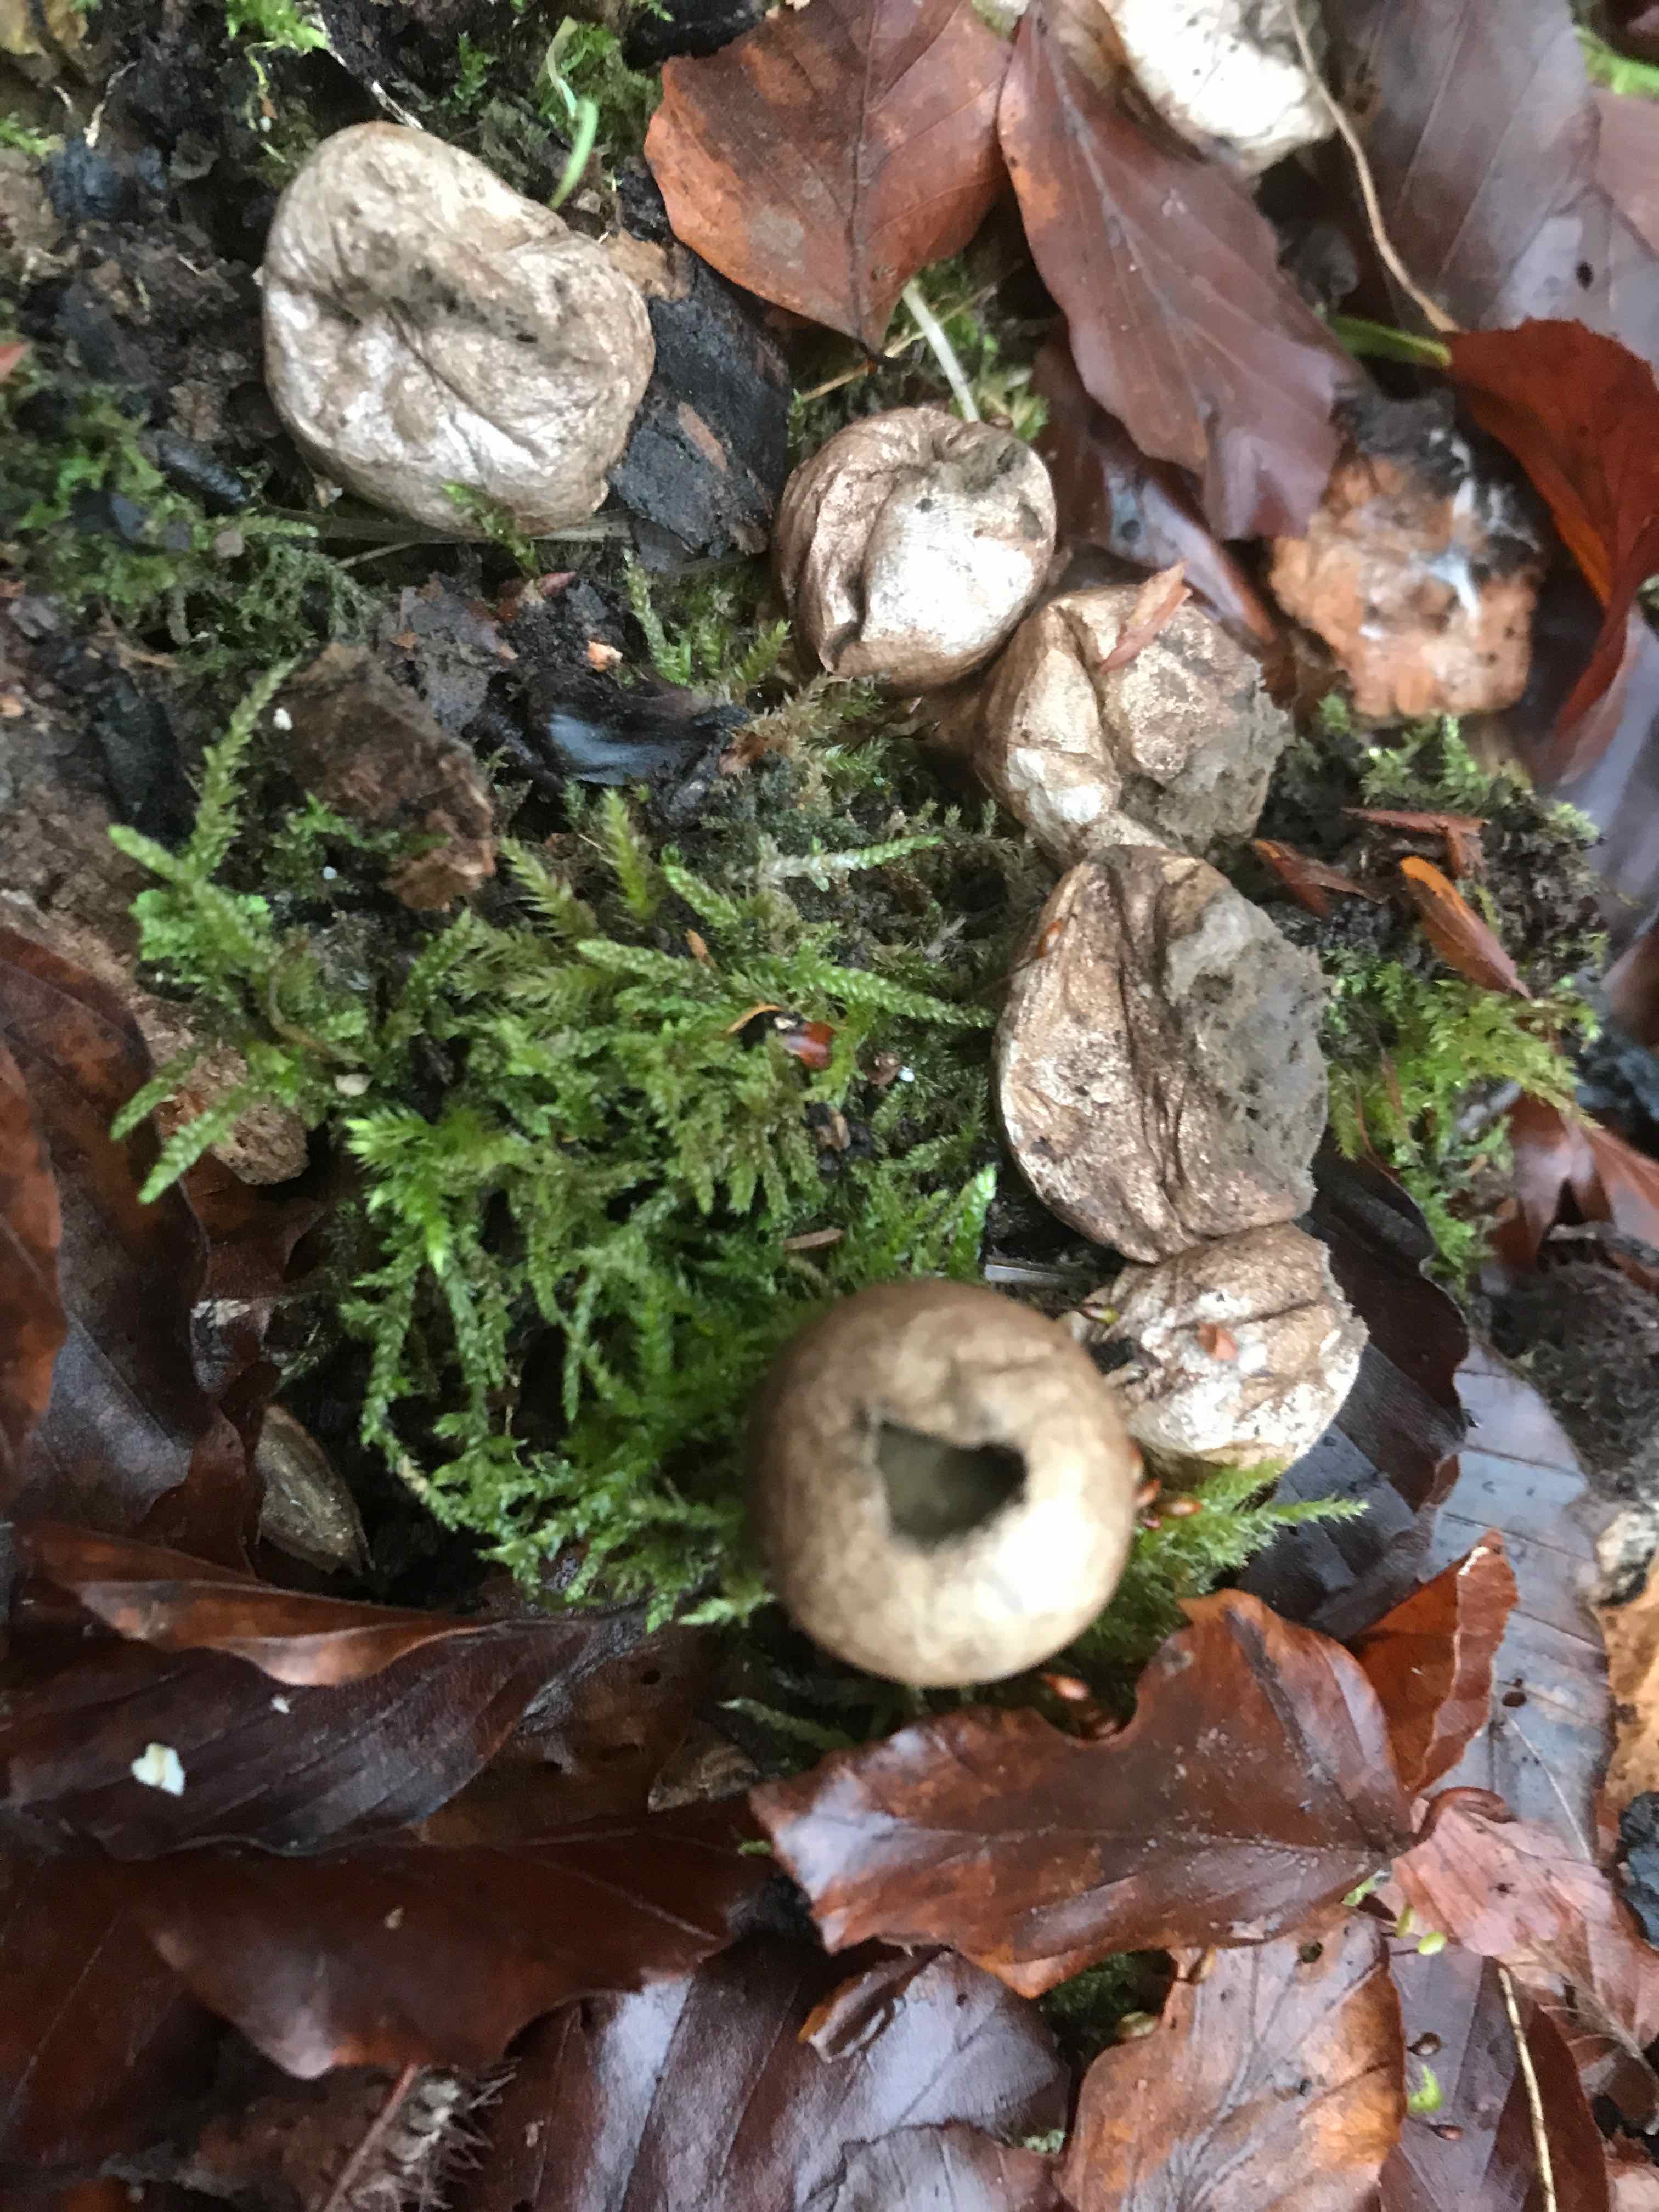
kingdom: Fungi
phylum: Basidiomycota
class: Agaricomycetes
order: Agaricales
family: Lycoperdaceae
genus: Apioperdon
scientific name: Apioperdon pyriforme
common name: pære-støvbold
